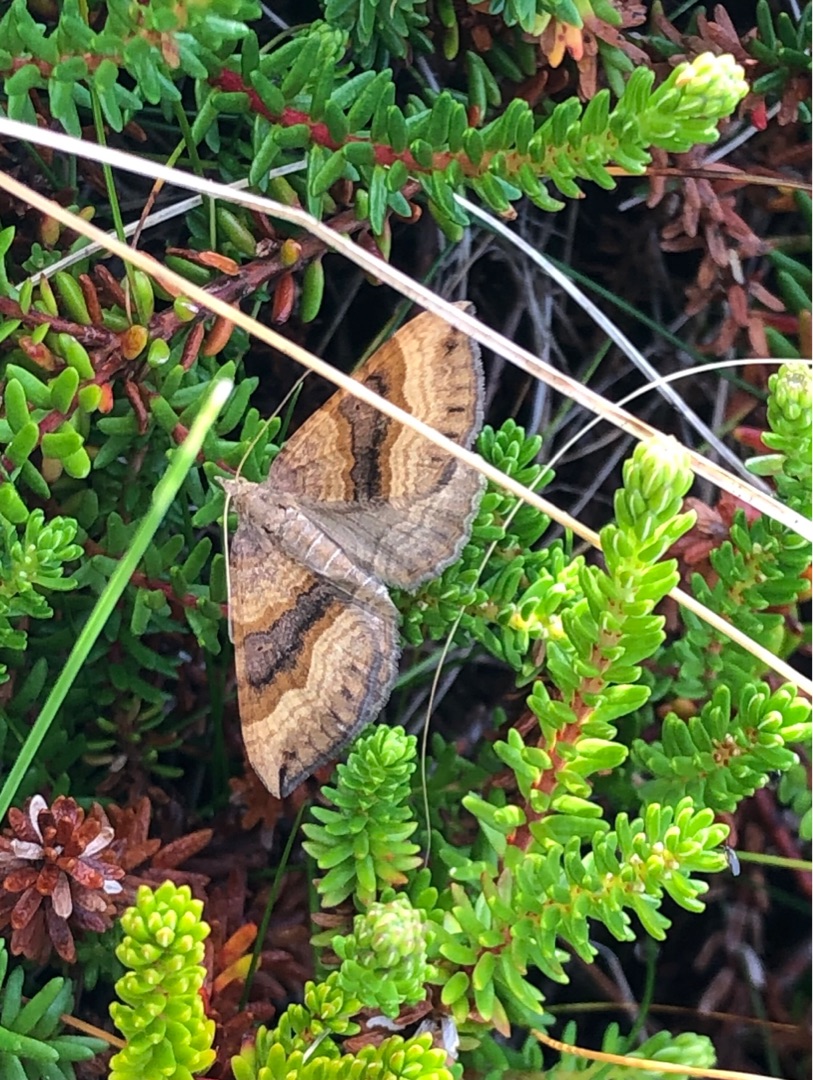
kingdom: Animalia
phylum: Arthropoda
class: Insecta
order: Lepidoptera
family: Geometridae
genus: Scotopteryx
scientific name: Scotopteryx chenopodiata
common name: Almindelig spidsvingemåler
